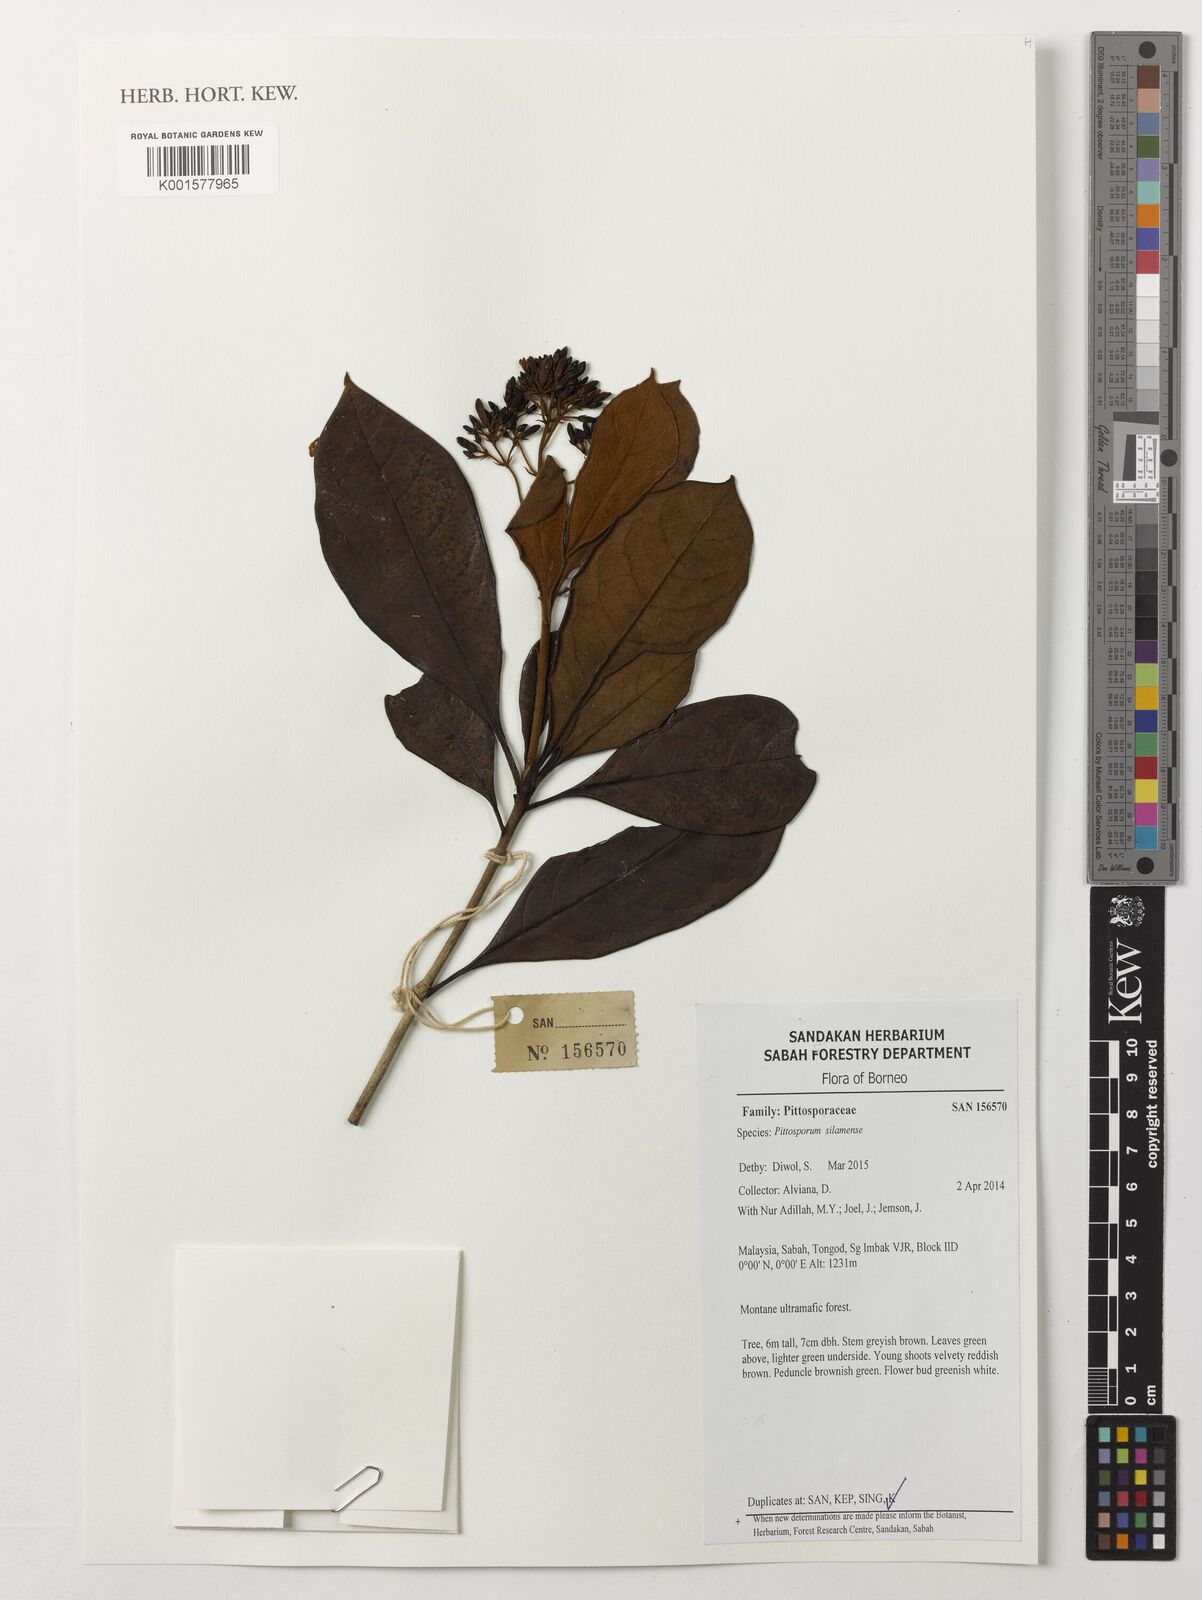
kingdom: Plantae
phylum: Tracheophyta
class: Magnoliopsida
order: Apiales
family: Pittosporaceae
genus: Pittosporum
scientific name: Pittosporum silamense
